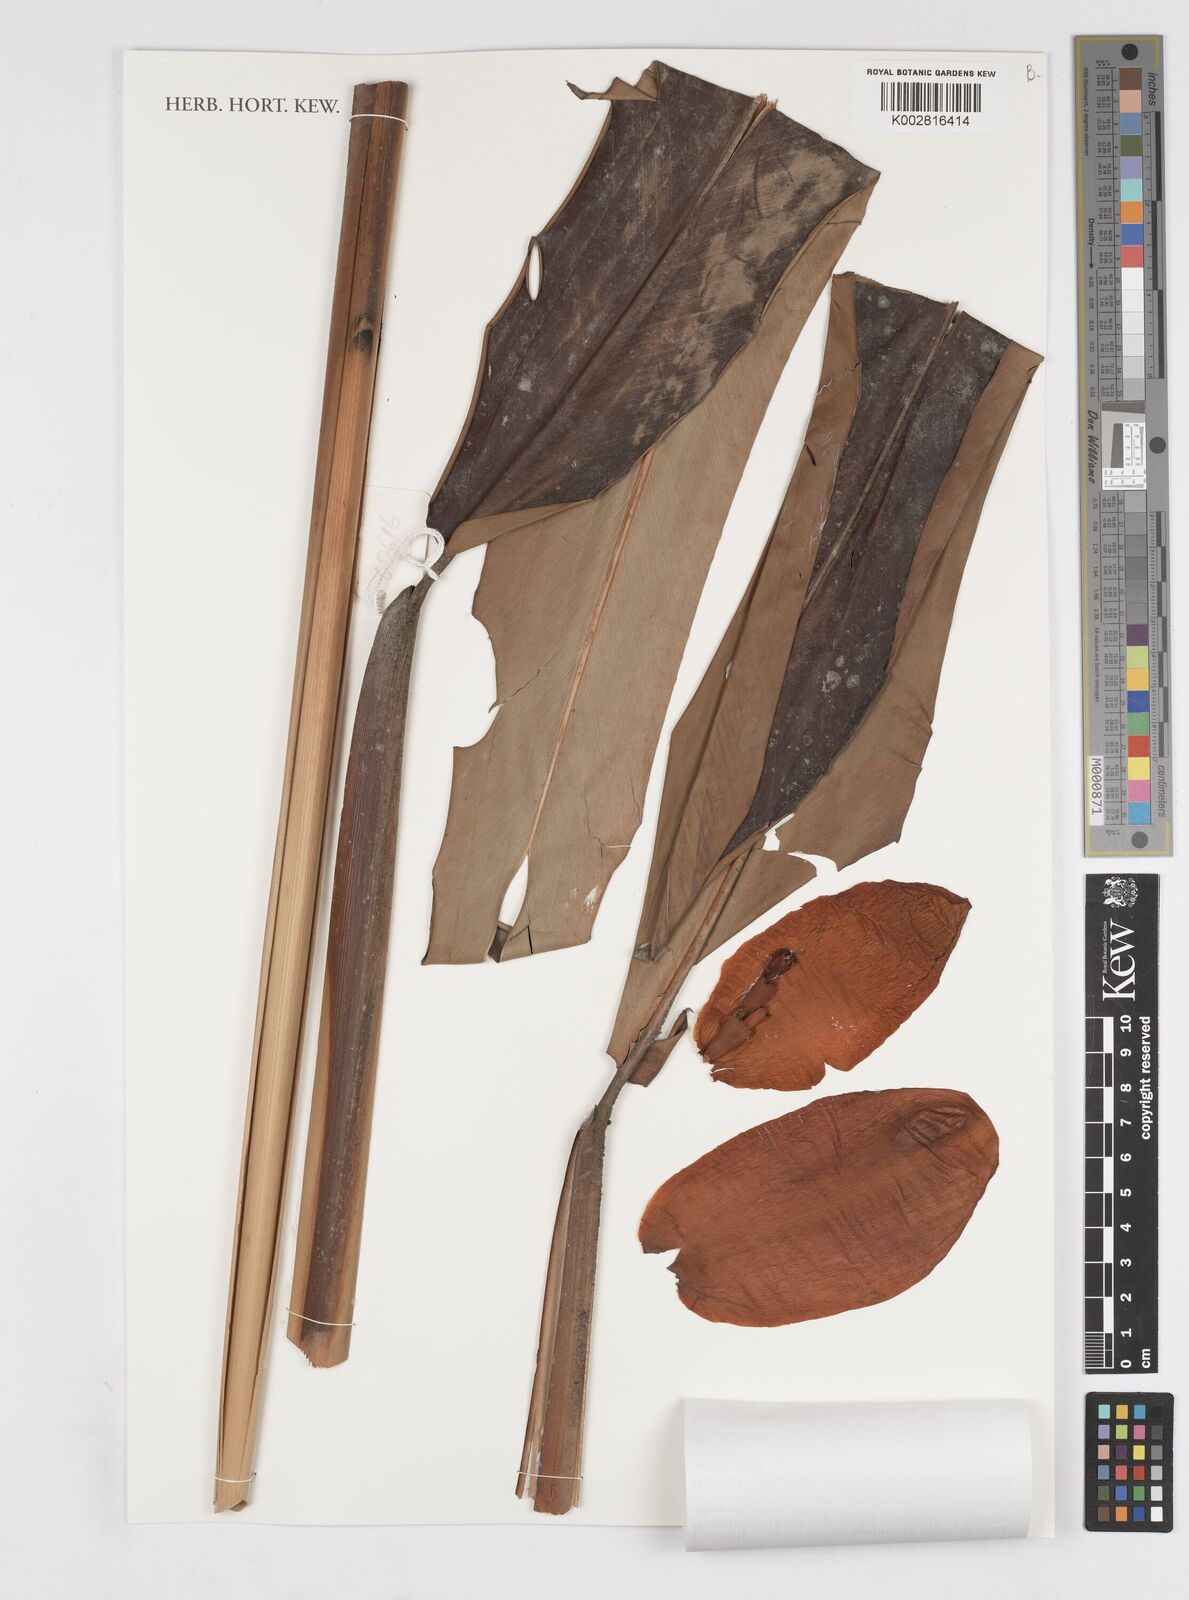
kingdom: Plantae
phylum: Tracheophyta
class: Liliopsida
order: Zingiberales
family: Zingiberaceae
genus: Alpinia
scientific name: Alpinia superba
